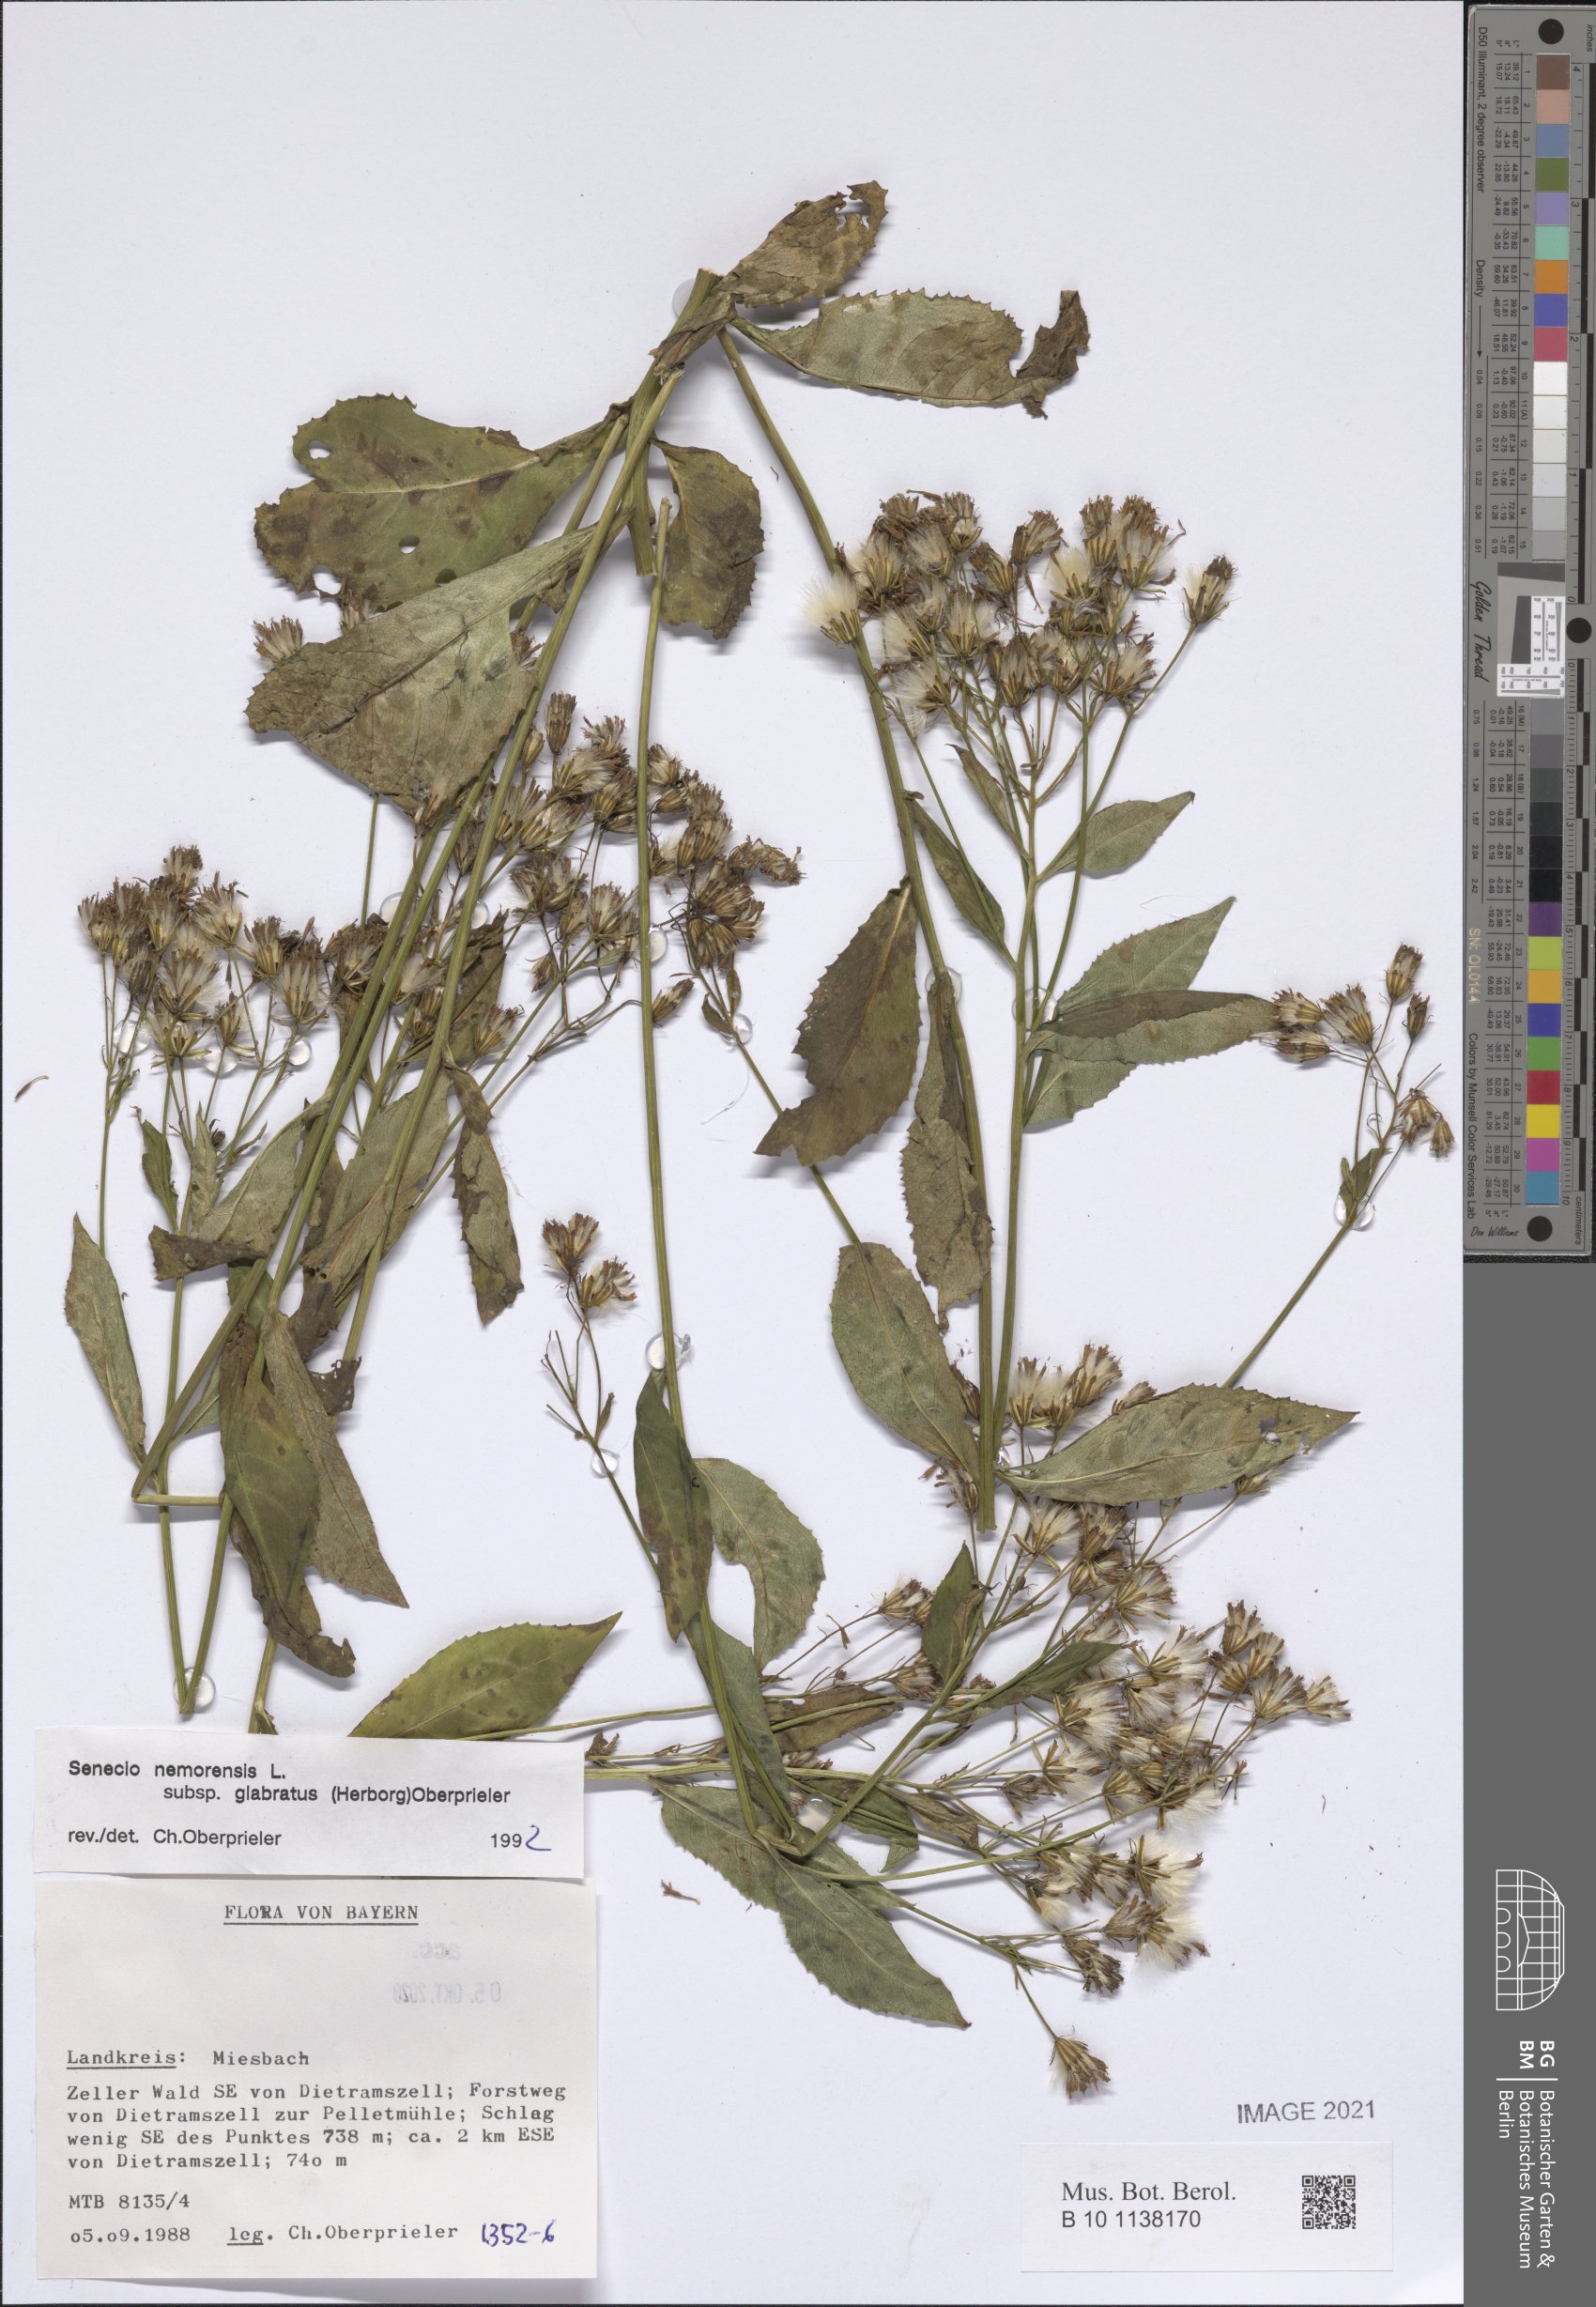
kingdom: Plantae
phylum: Tracheophyta
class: Magnoliopsida
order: Asterales
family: Asteraceae
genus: Senecio
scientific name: Senecio germanicus
